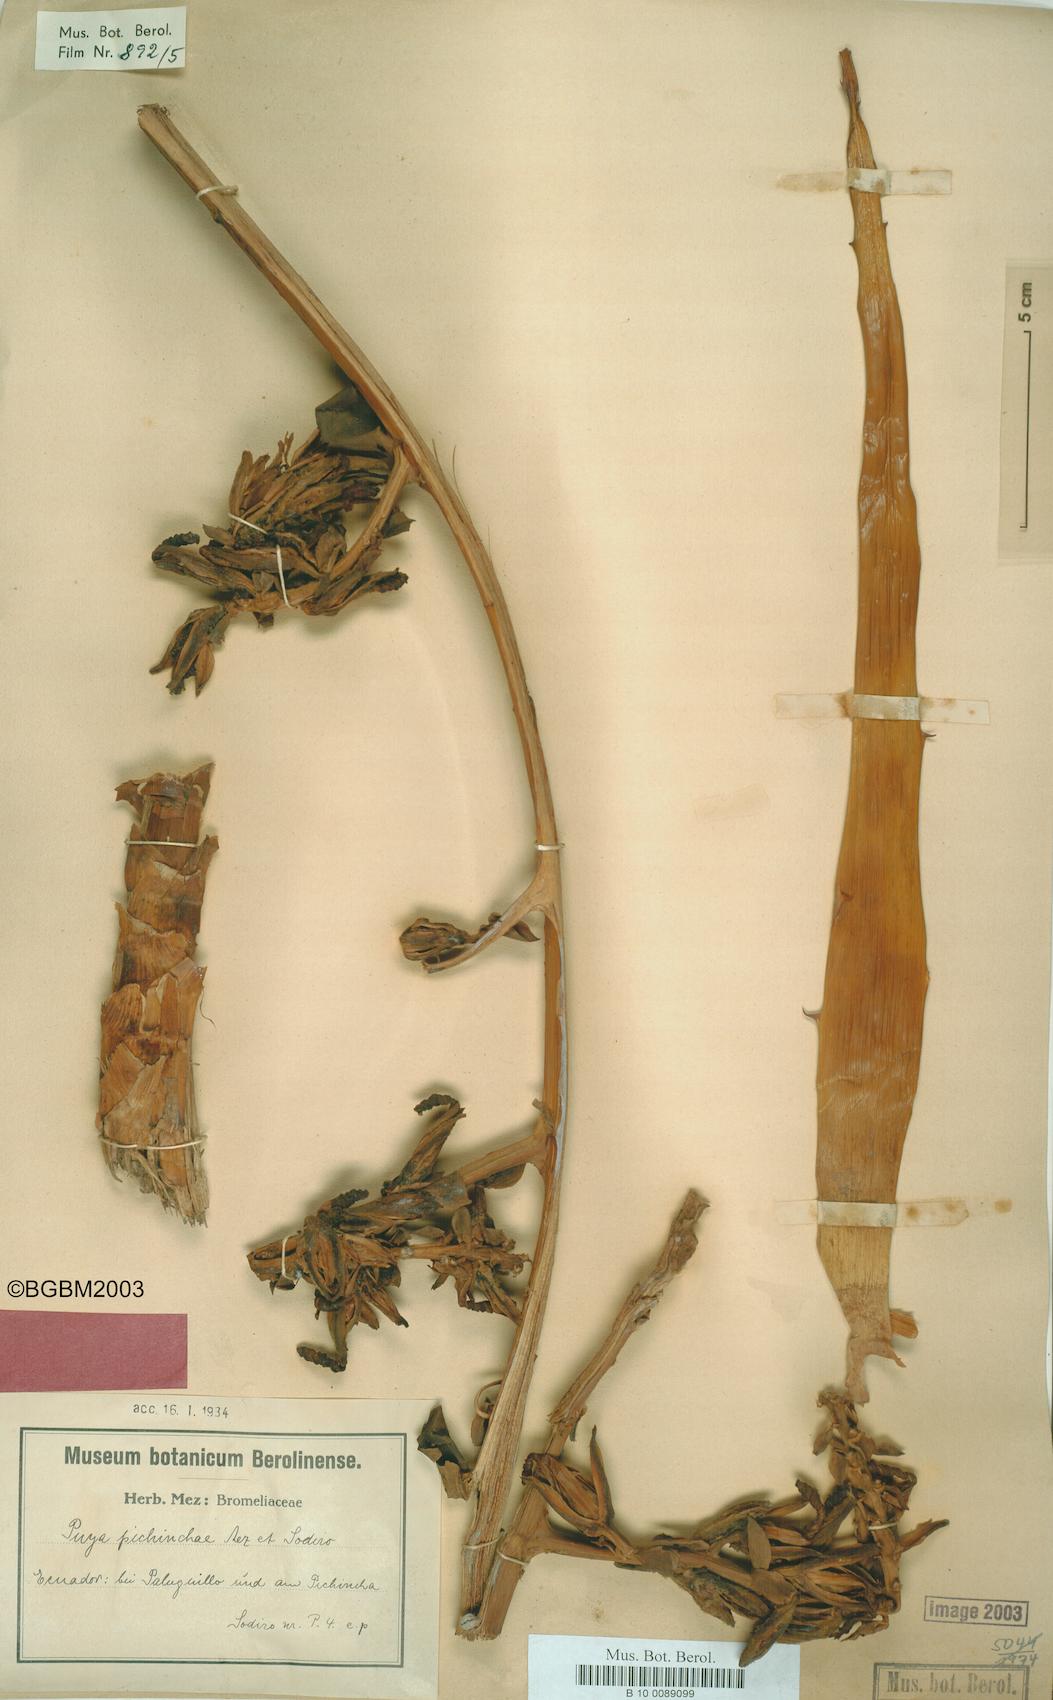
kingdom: Plantae
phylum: Tracheophyta
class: Liliopsida
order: Poales
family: Bromeliaceae
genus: Puya
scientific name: Puya pichinchae
